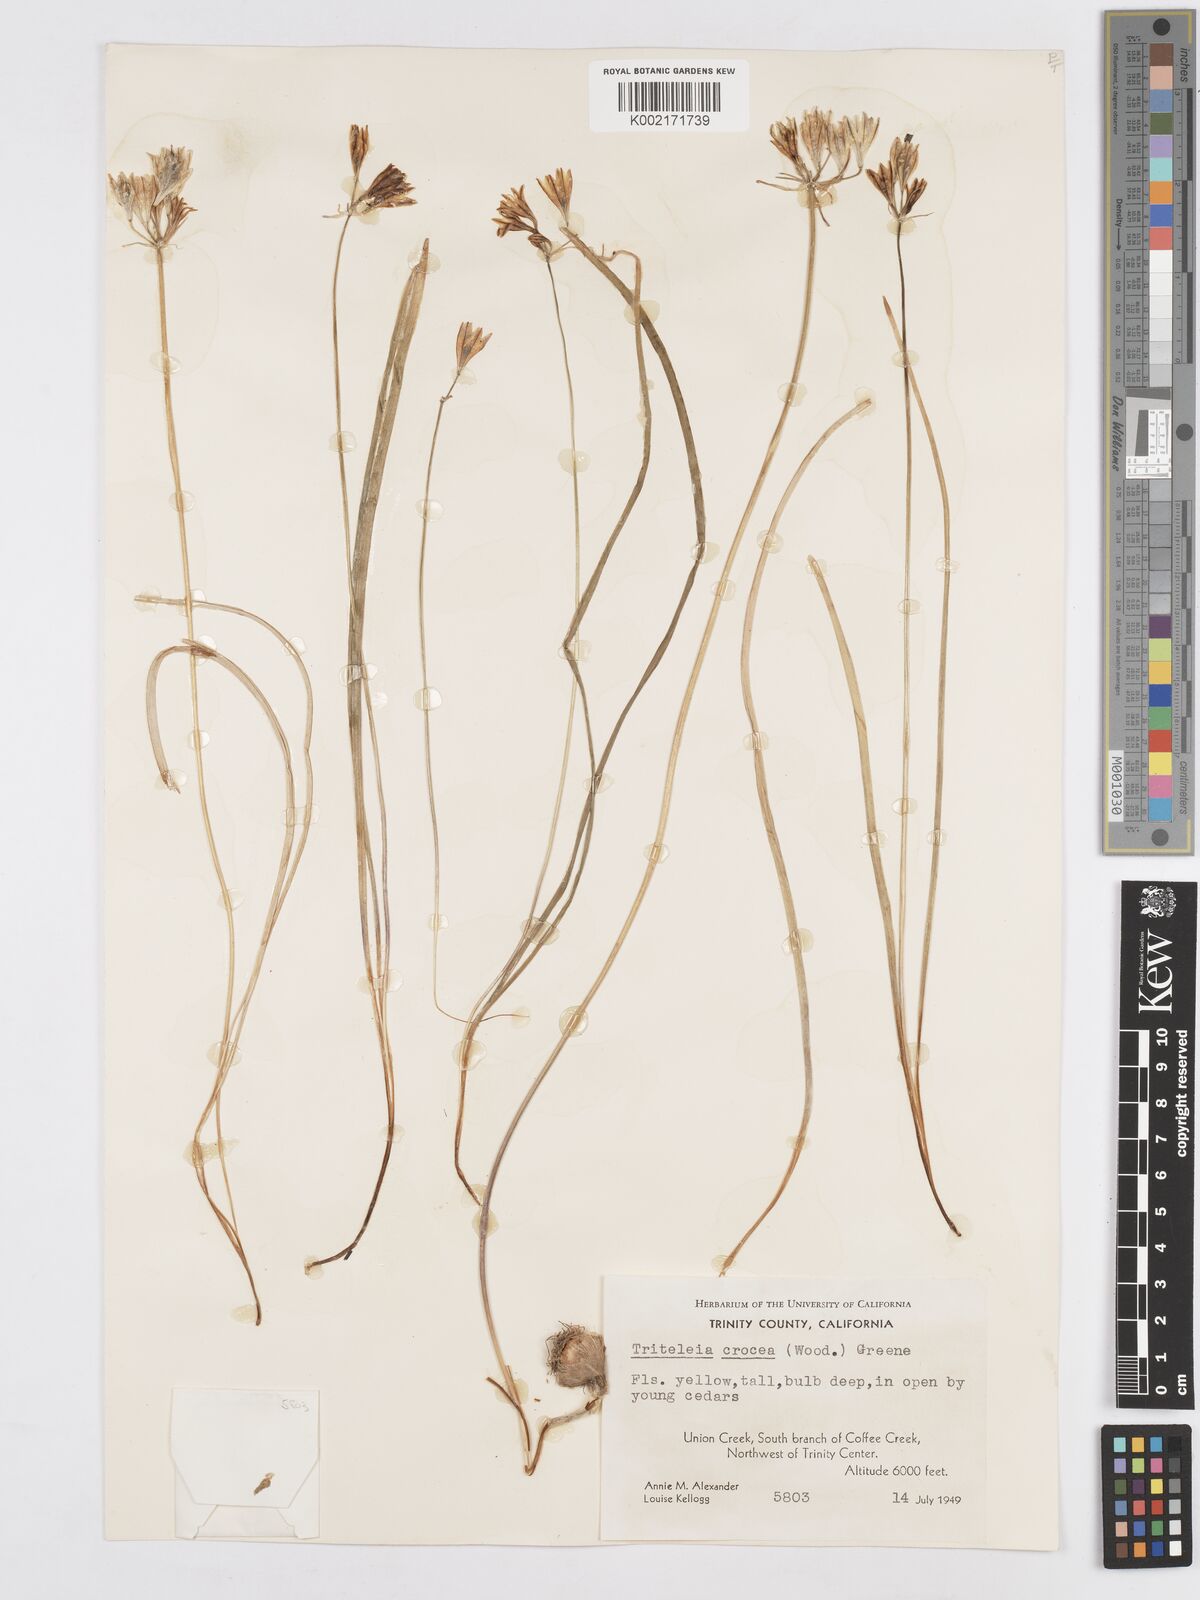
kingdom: Plantae
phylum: Tracheophyta
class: Liliopsida
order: Asparagales
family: Asparagaceae
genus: Triteleia
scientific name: Triteleia crocea
